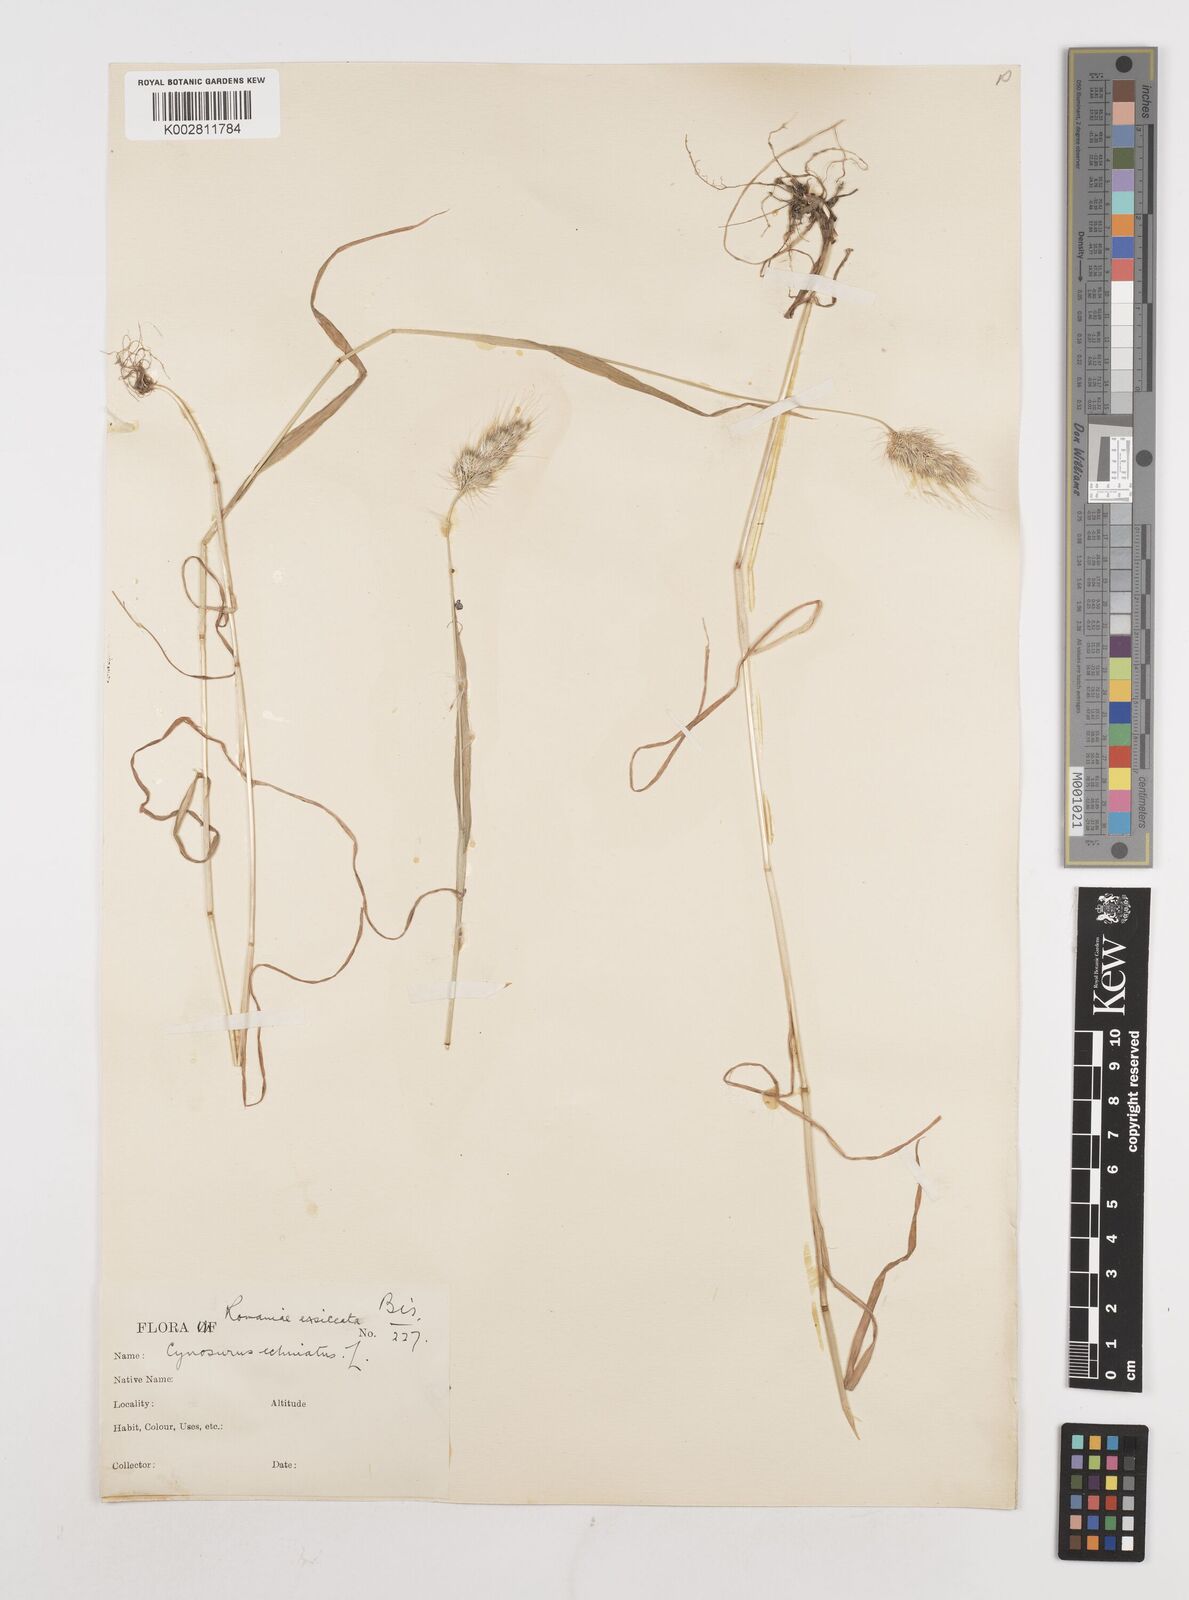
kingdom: Plantae
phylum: Tracheophyta
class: Liliopsida
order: Poales
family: Poaceae
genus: Cynosurus
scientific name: Cynosurus echinatus
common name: Rough dog's-tail
